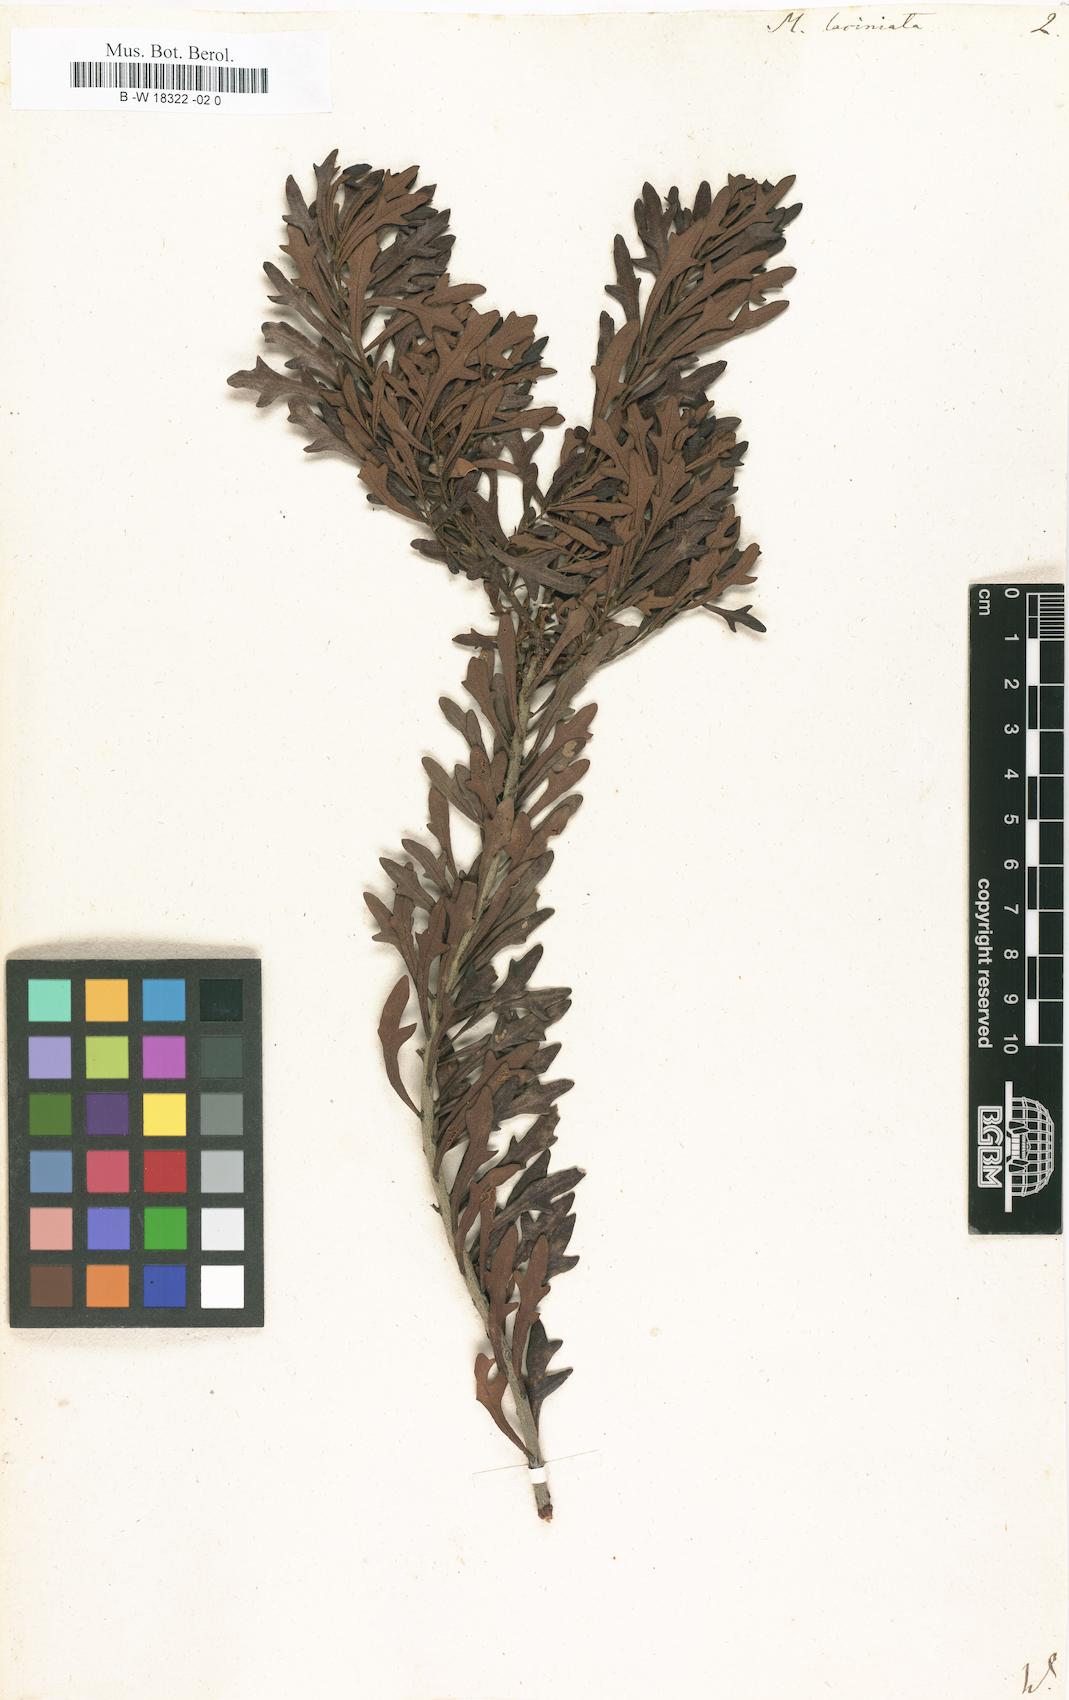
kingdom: Plantae
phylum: Tracheophyta
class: Magnoliopsida
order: Fagales
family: Myricaceae
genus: Morella
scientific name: Morella quercifolia
